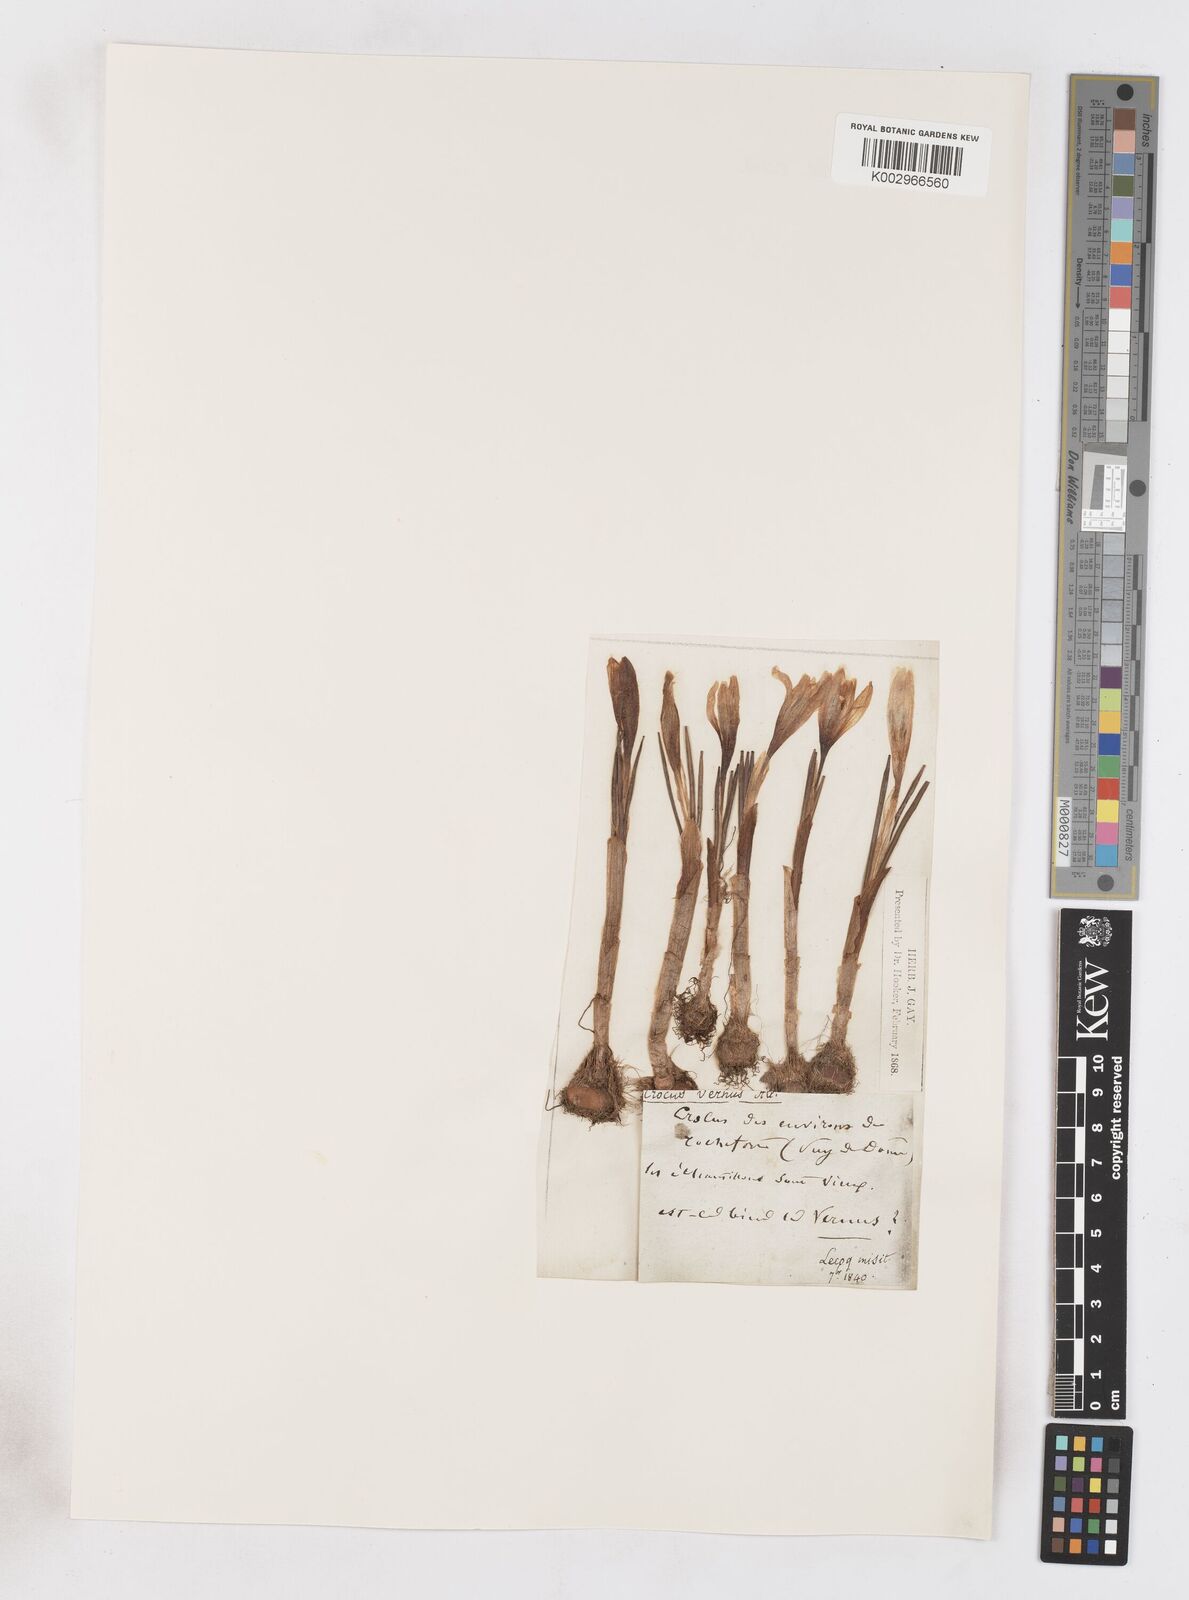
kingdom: Plantae
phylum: Tracheophyta
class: Liliopsida
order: Asparagales
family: Iridaceae
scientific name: Iridaceae
